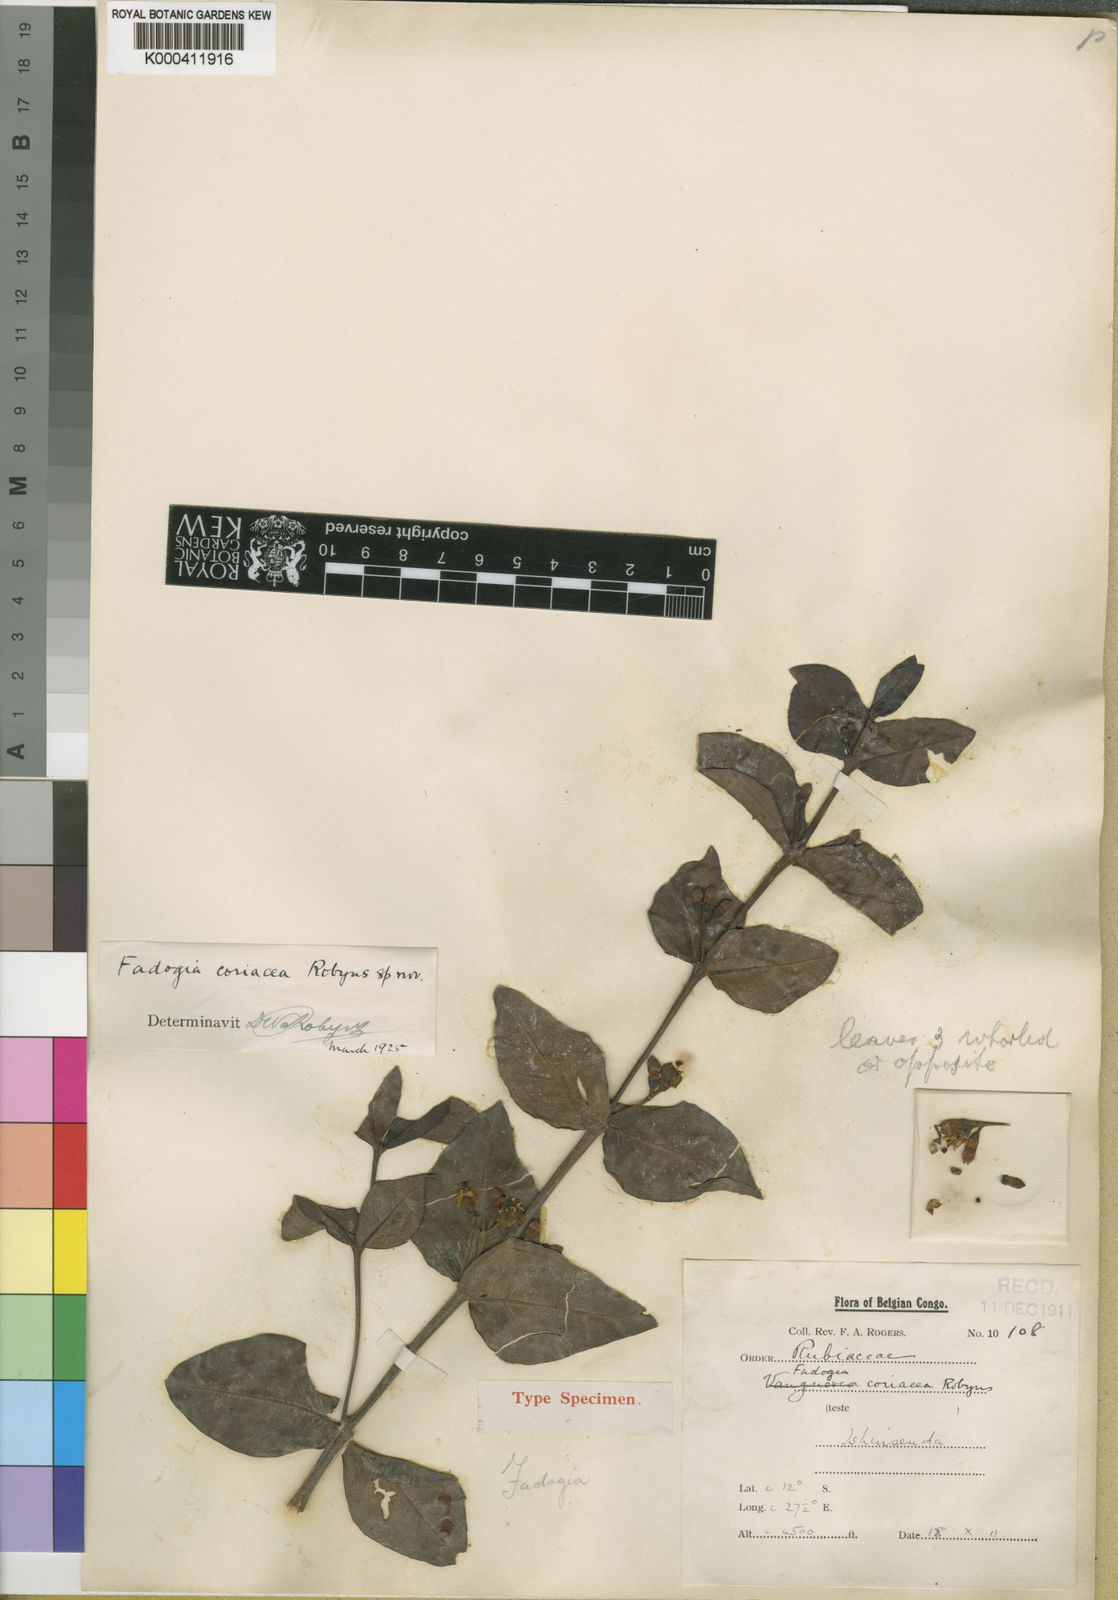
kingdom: Plantae
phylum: Tracheophyta
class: Magnoliopsida
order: Gentianales
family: Rubiaceae
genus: Fadogia
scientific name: Fadogia triphylla
